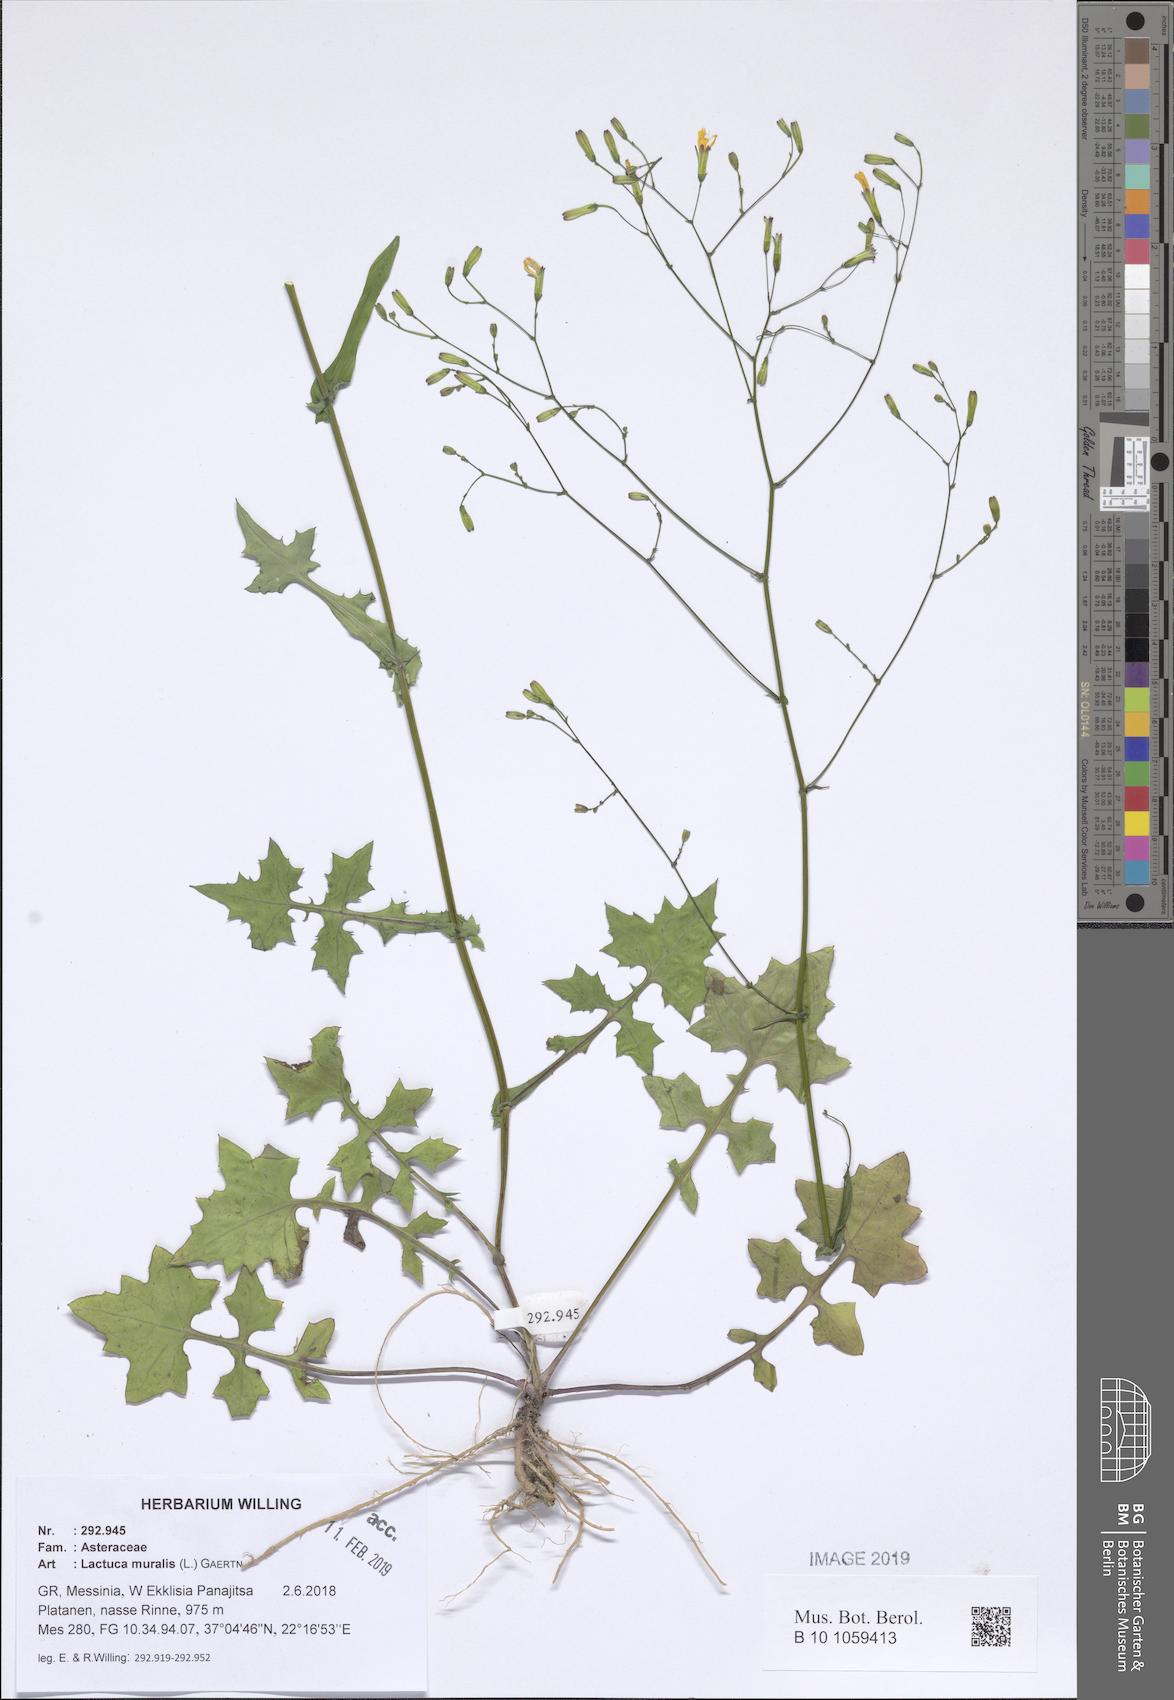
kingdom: Plantae
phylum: Tracheophyta
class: Magnoliopsida
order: Asterales
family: Asteraceae
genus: Mycelis
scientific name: Mycelis muralis
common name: Wall lettuce
